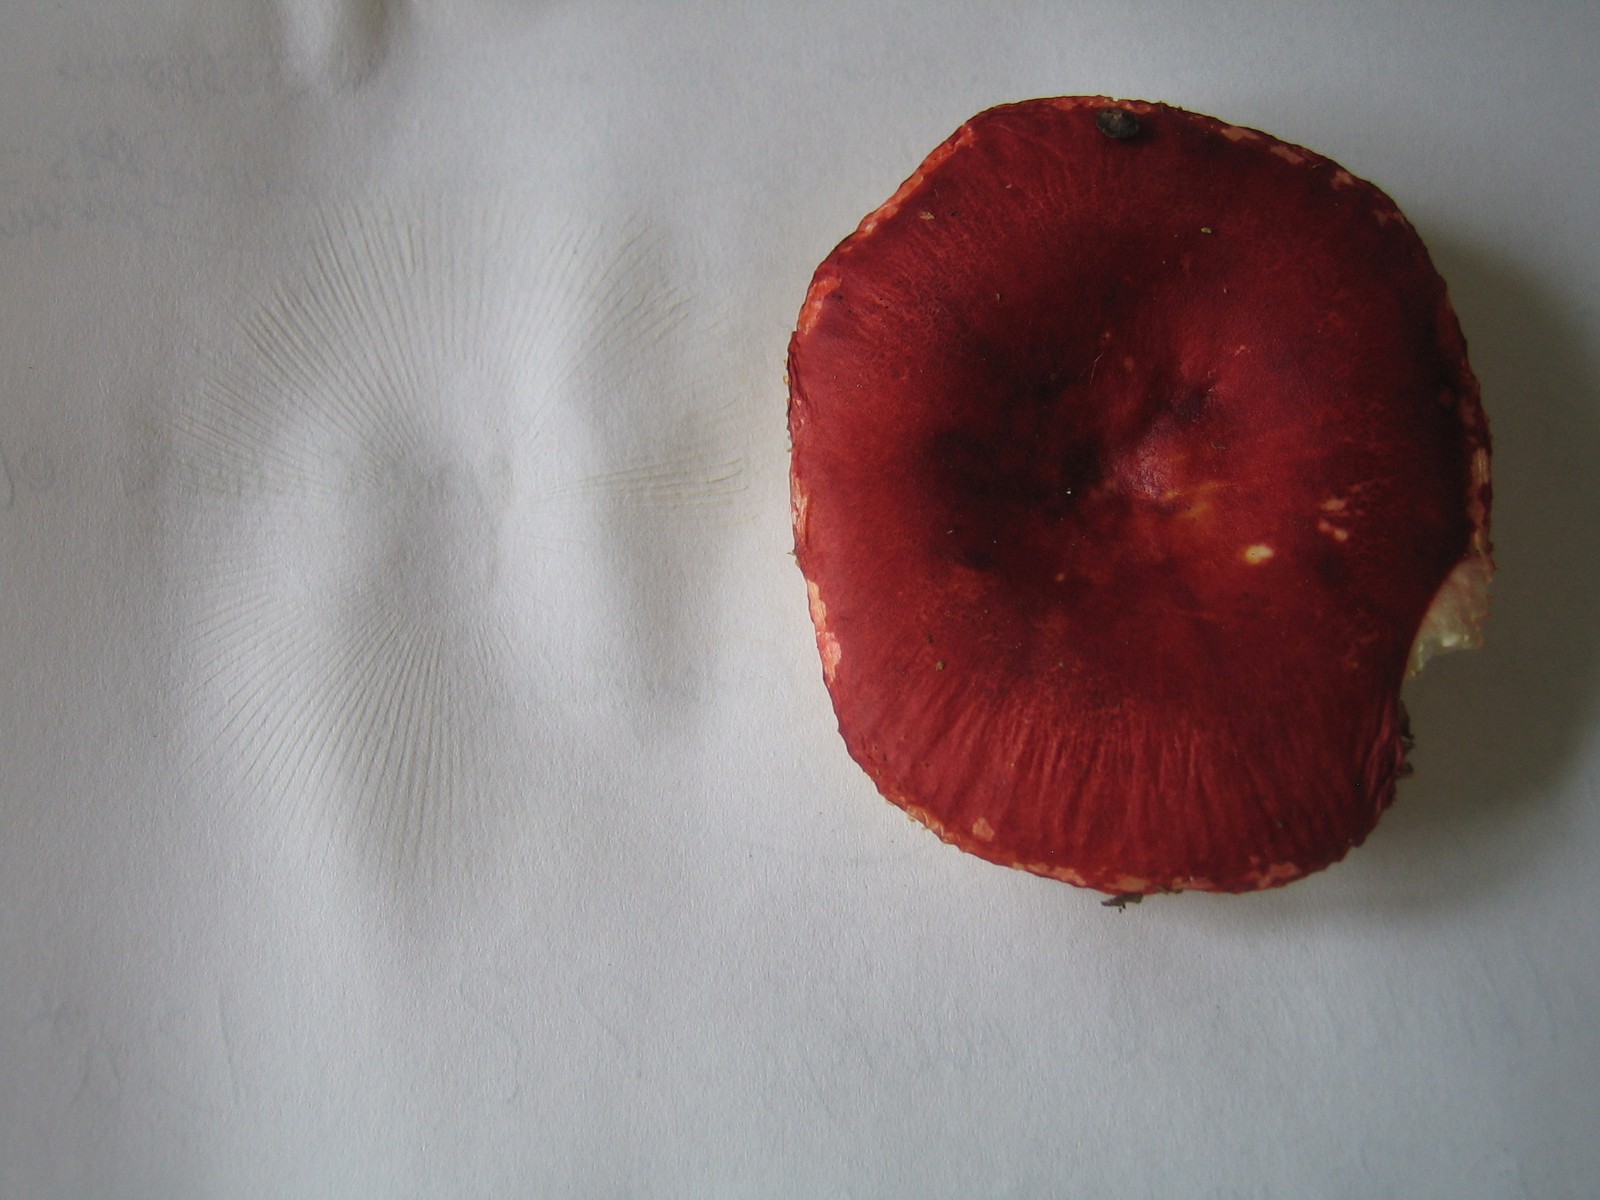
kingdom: Fungi
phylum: Basidiomycota
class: Agaricomycetes
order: Russulales
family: Russulaceae
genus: Russula
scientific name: Russula emetica
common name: stor gift-skørhat
